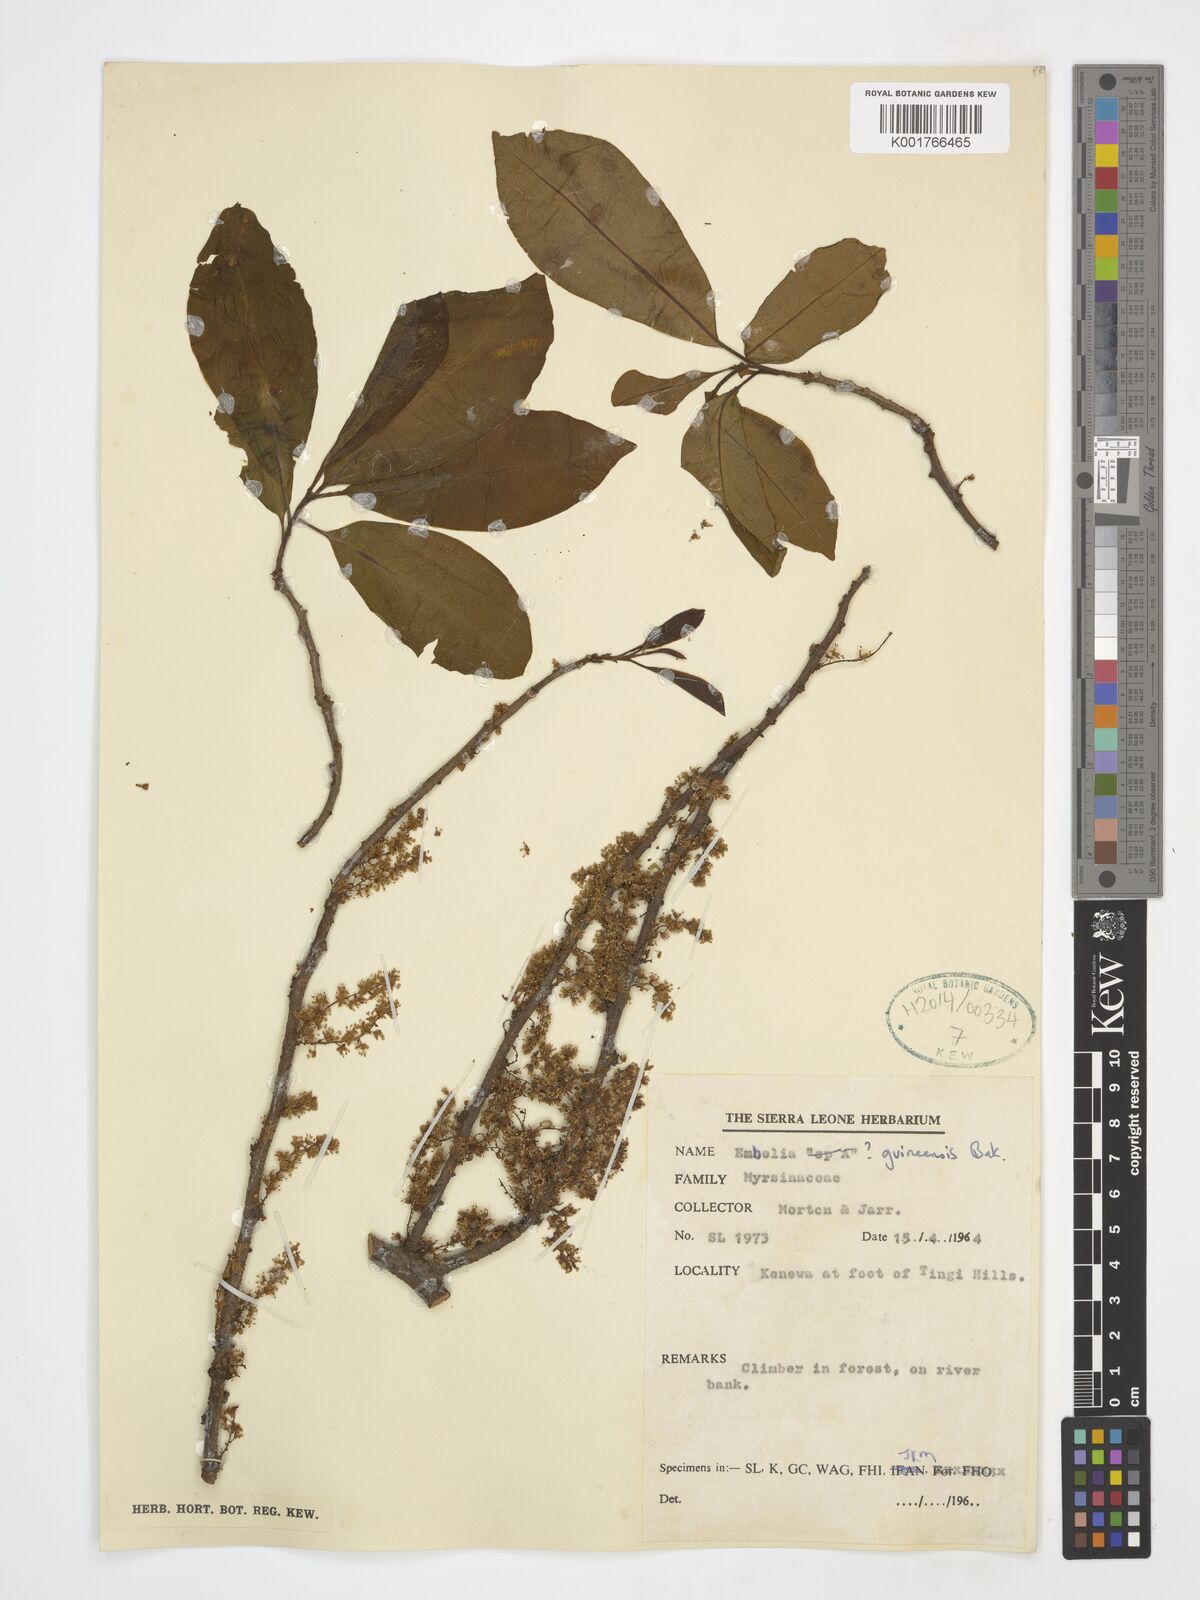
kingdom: Plantae
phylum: Tracheophyta
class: Magnoliopsida
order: Ericales
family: Primulaceae
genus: Embelia
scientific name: Embelia djalonensis
